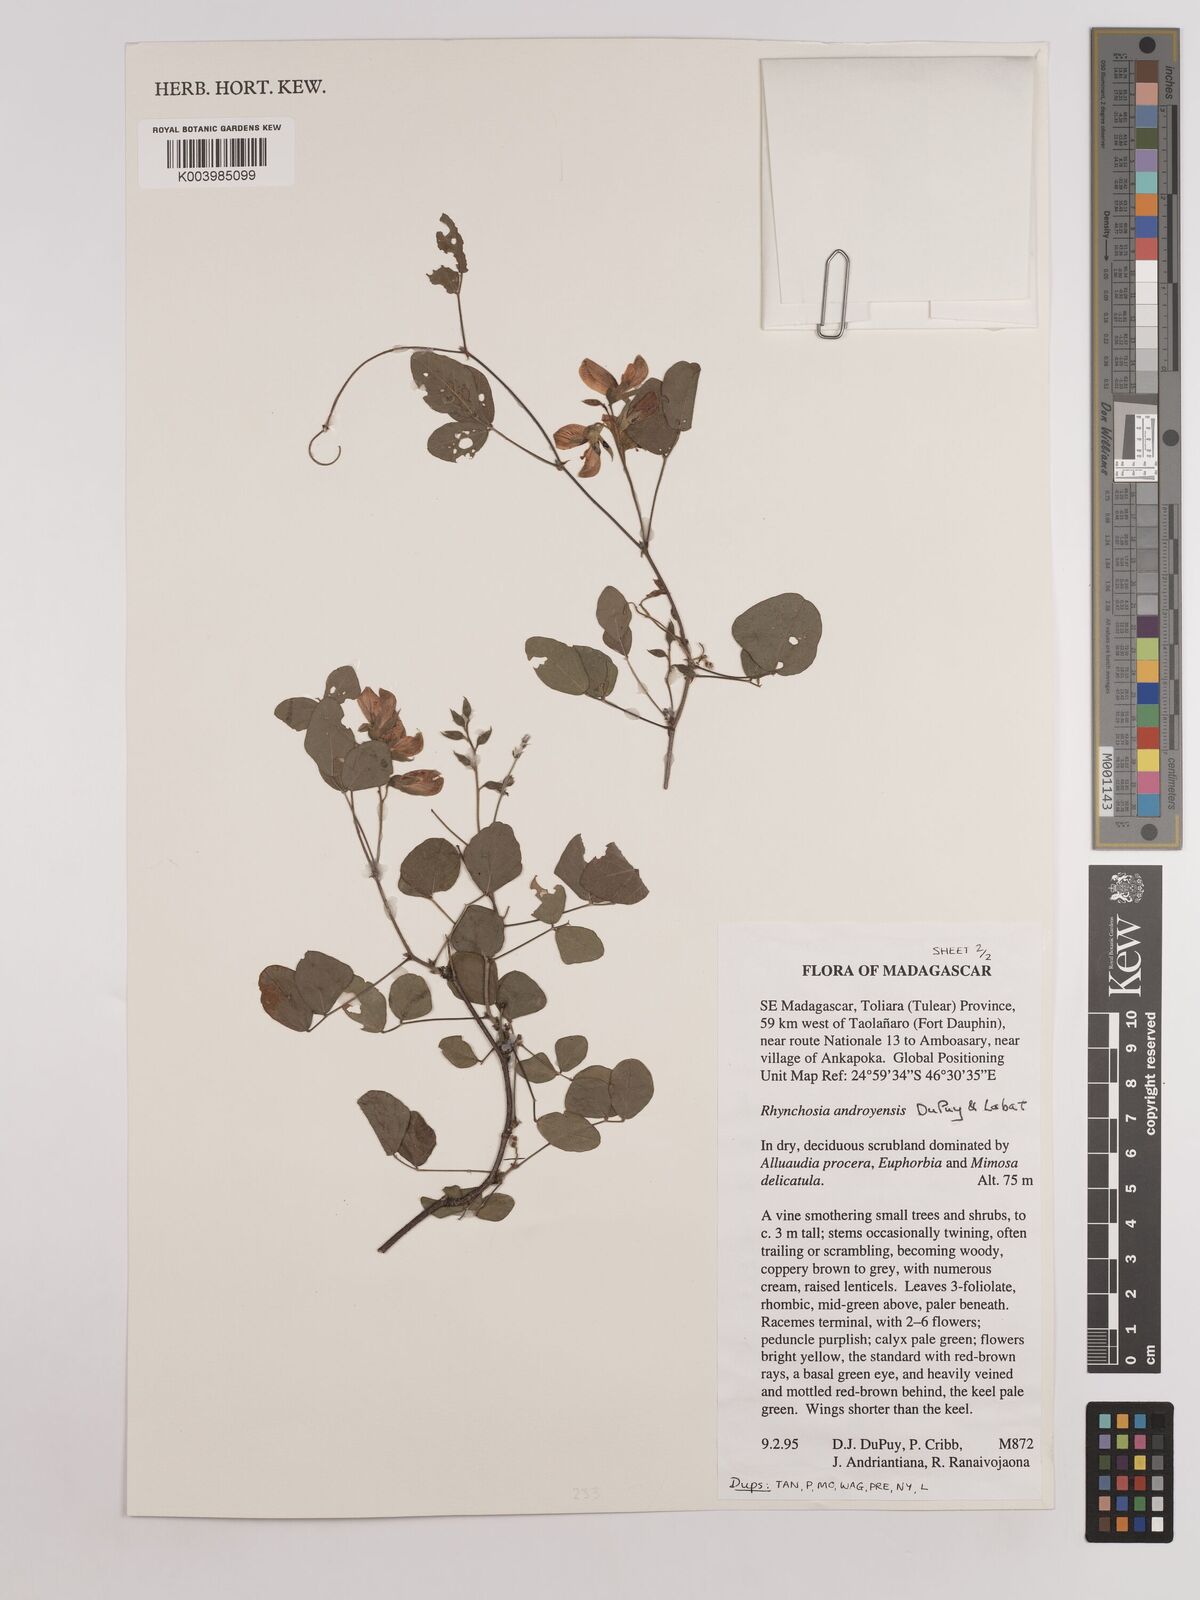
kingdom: Plantae
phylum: Tracheophyta
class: Magnoliopsida
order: Fabales
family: Fabaceae
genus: Rhynchosia
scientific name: Rhynchosia androyensis
